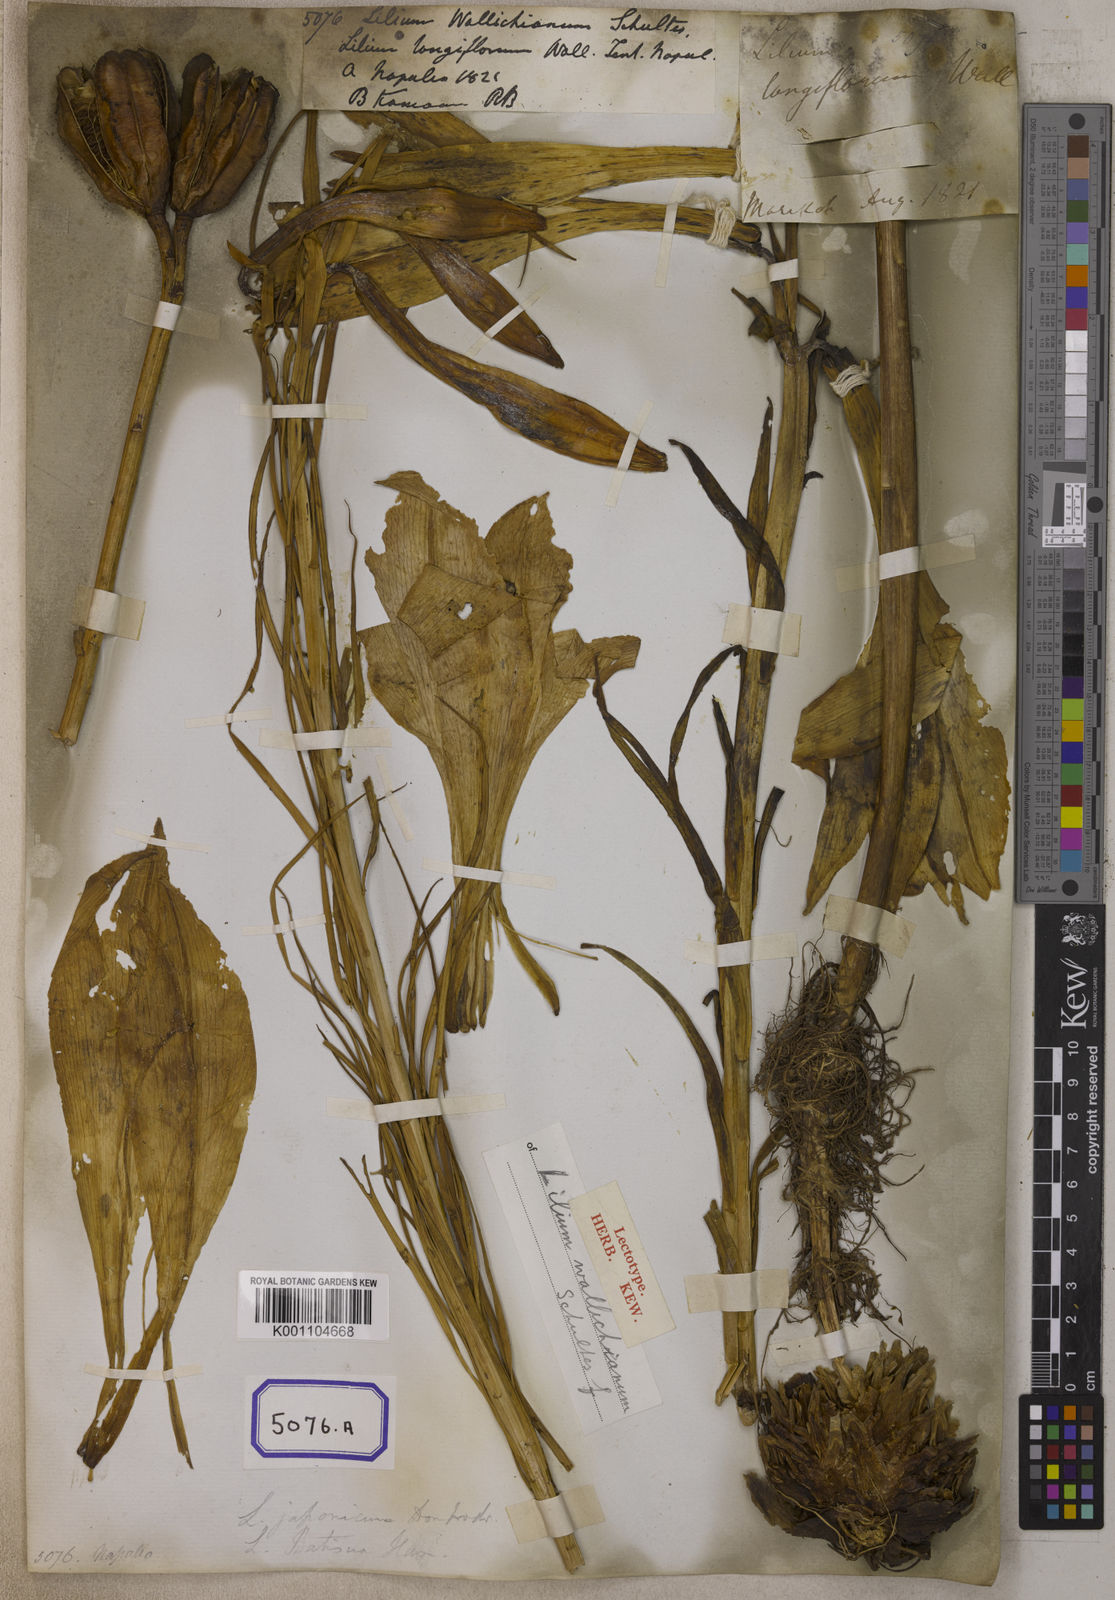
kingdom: Plantae
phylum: Tracheophyta
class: Liliopsida
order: Liliales
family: Liliaceae
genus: Lilium
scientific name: Lilium wallichianum
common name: Wallich's lily
